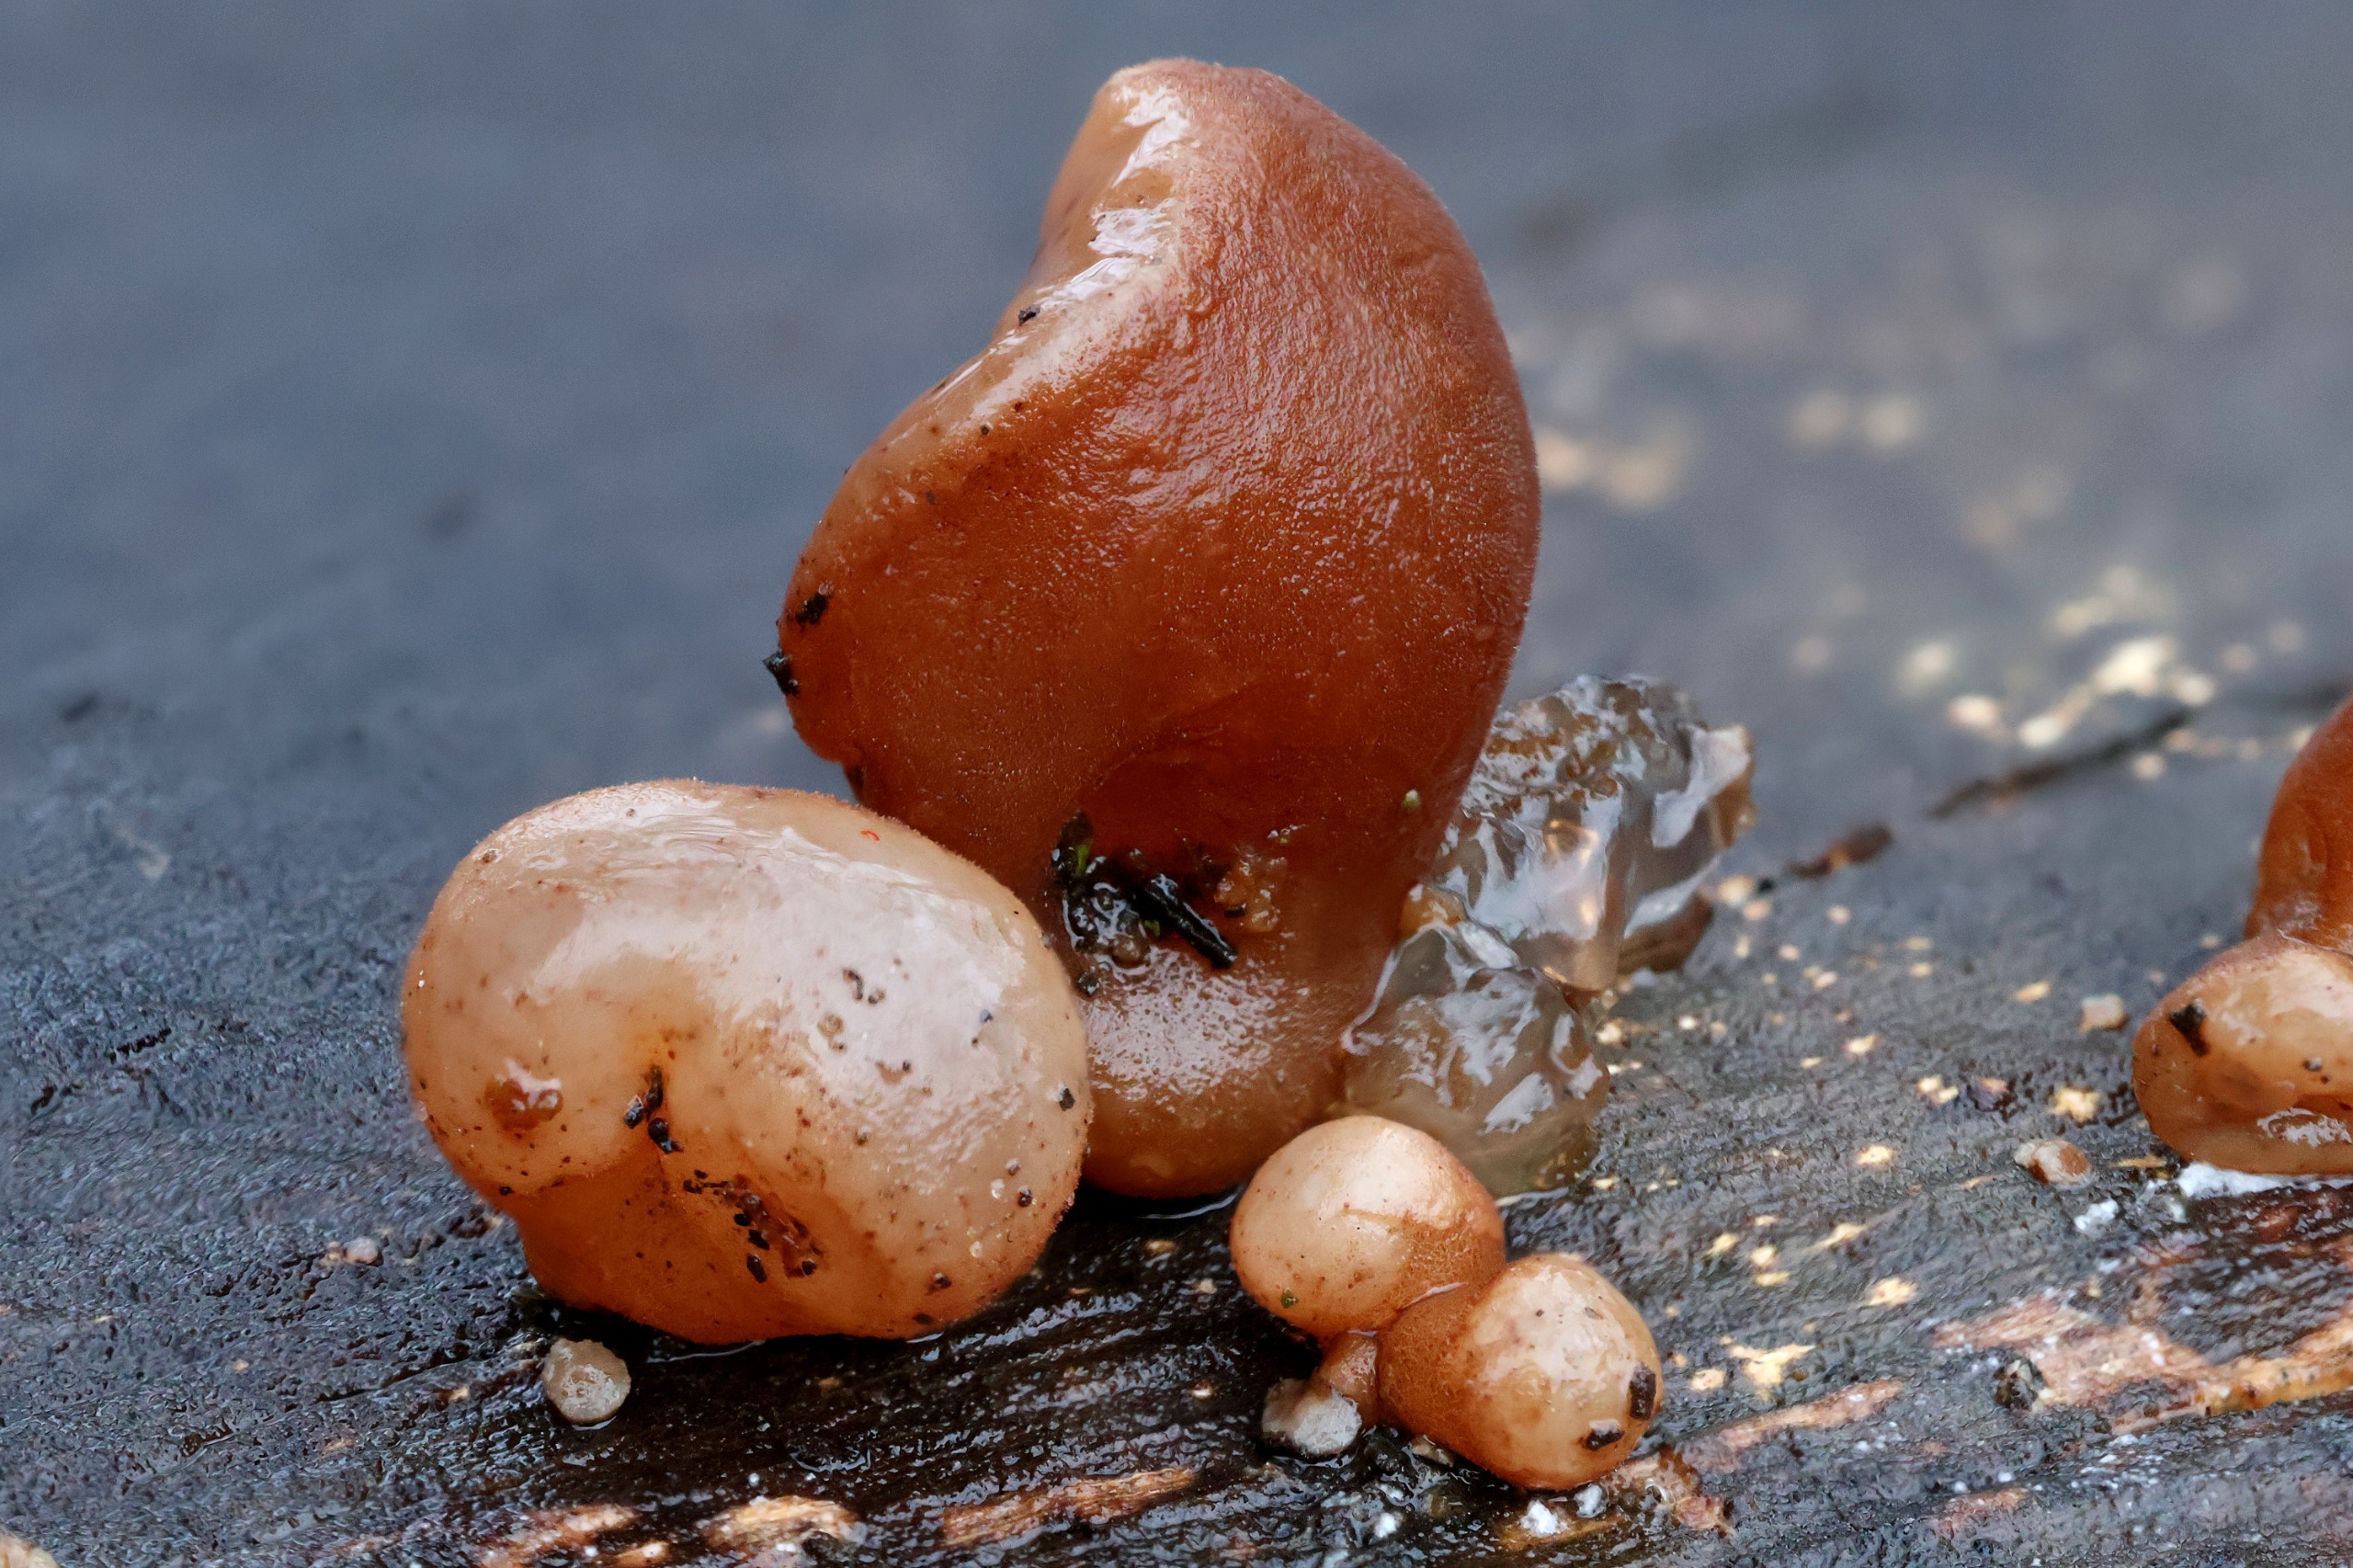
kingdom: Fungi
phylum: Basidiomycota
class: Agaricomycetes
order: Auriculariales
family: Auriculariaceae
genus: Auricularia
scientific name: Auricularia auricula-judae
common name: Almindelig judasøre
